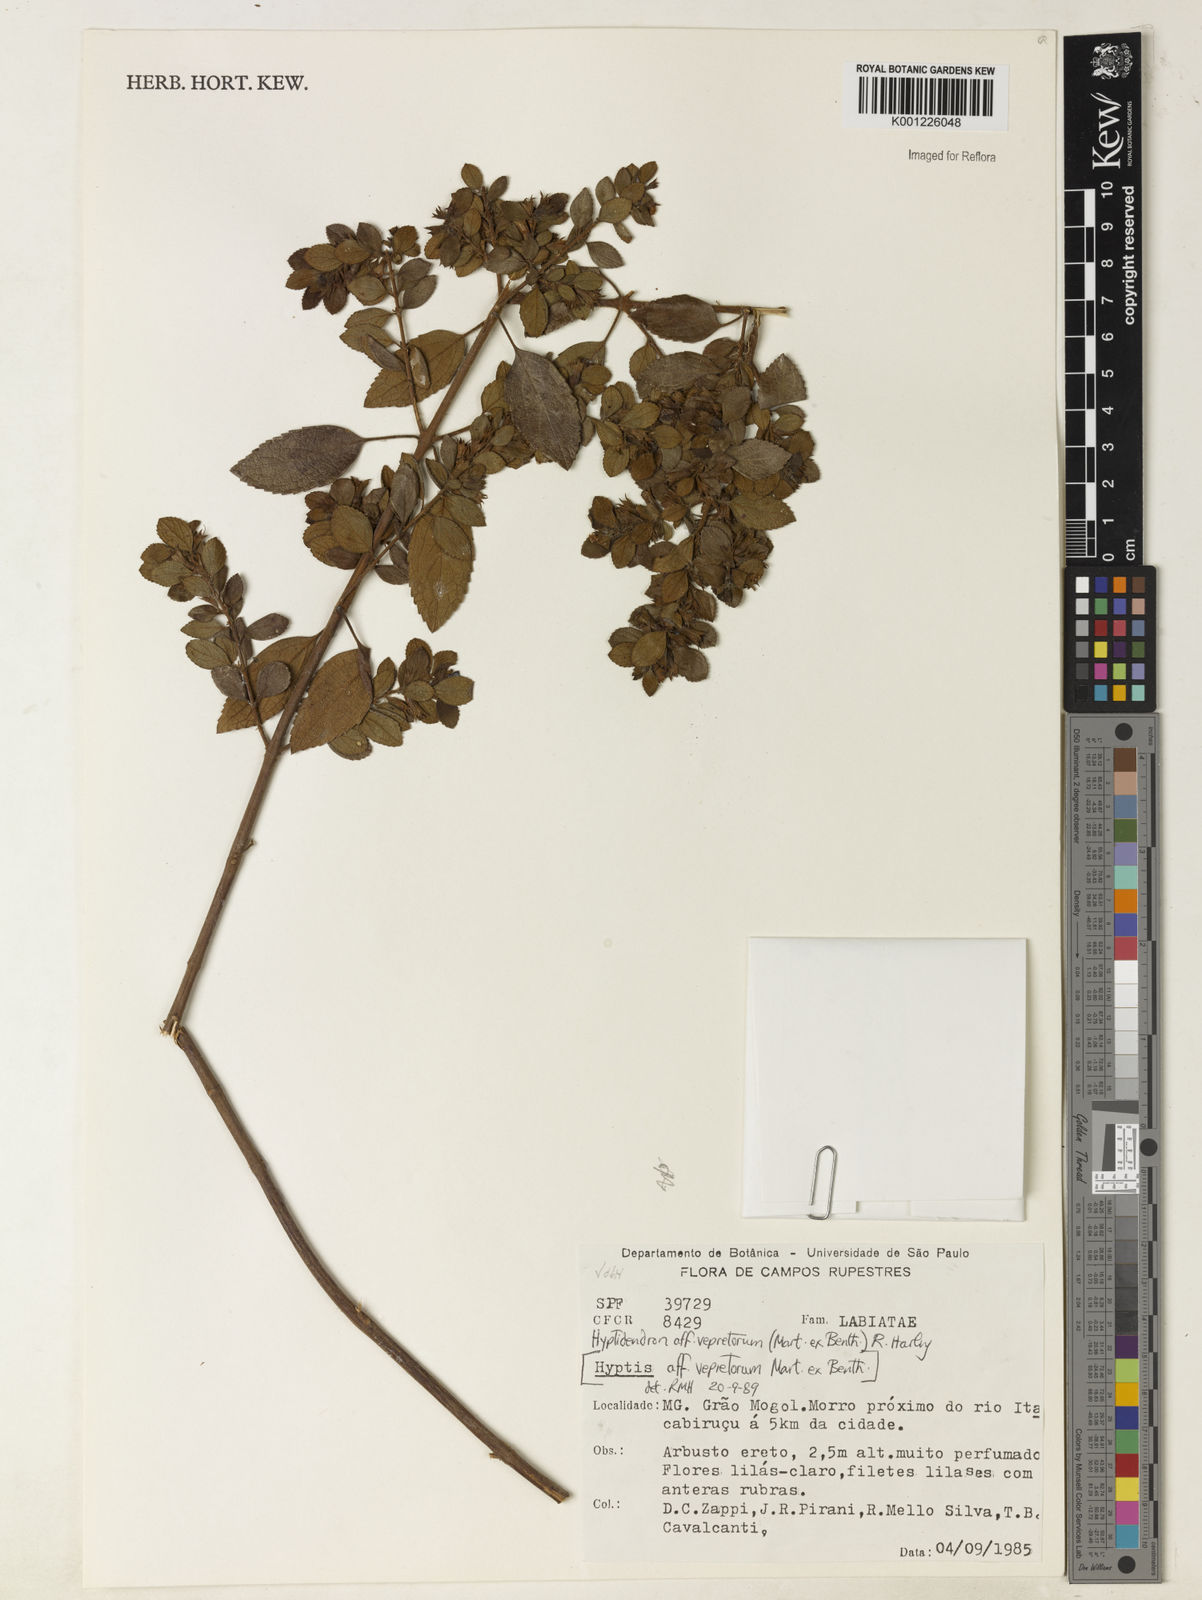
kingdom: Plantae
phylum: Tracheophyta
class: Magnoliopsida
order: Lamiales
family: Lamiaceae
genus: Hyptidendron
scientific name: Hyptidendron vepretorum
